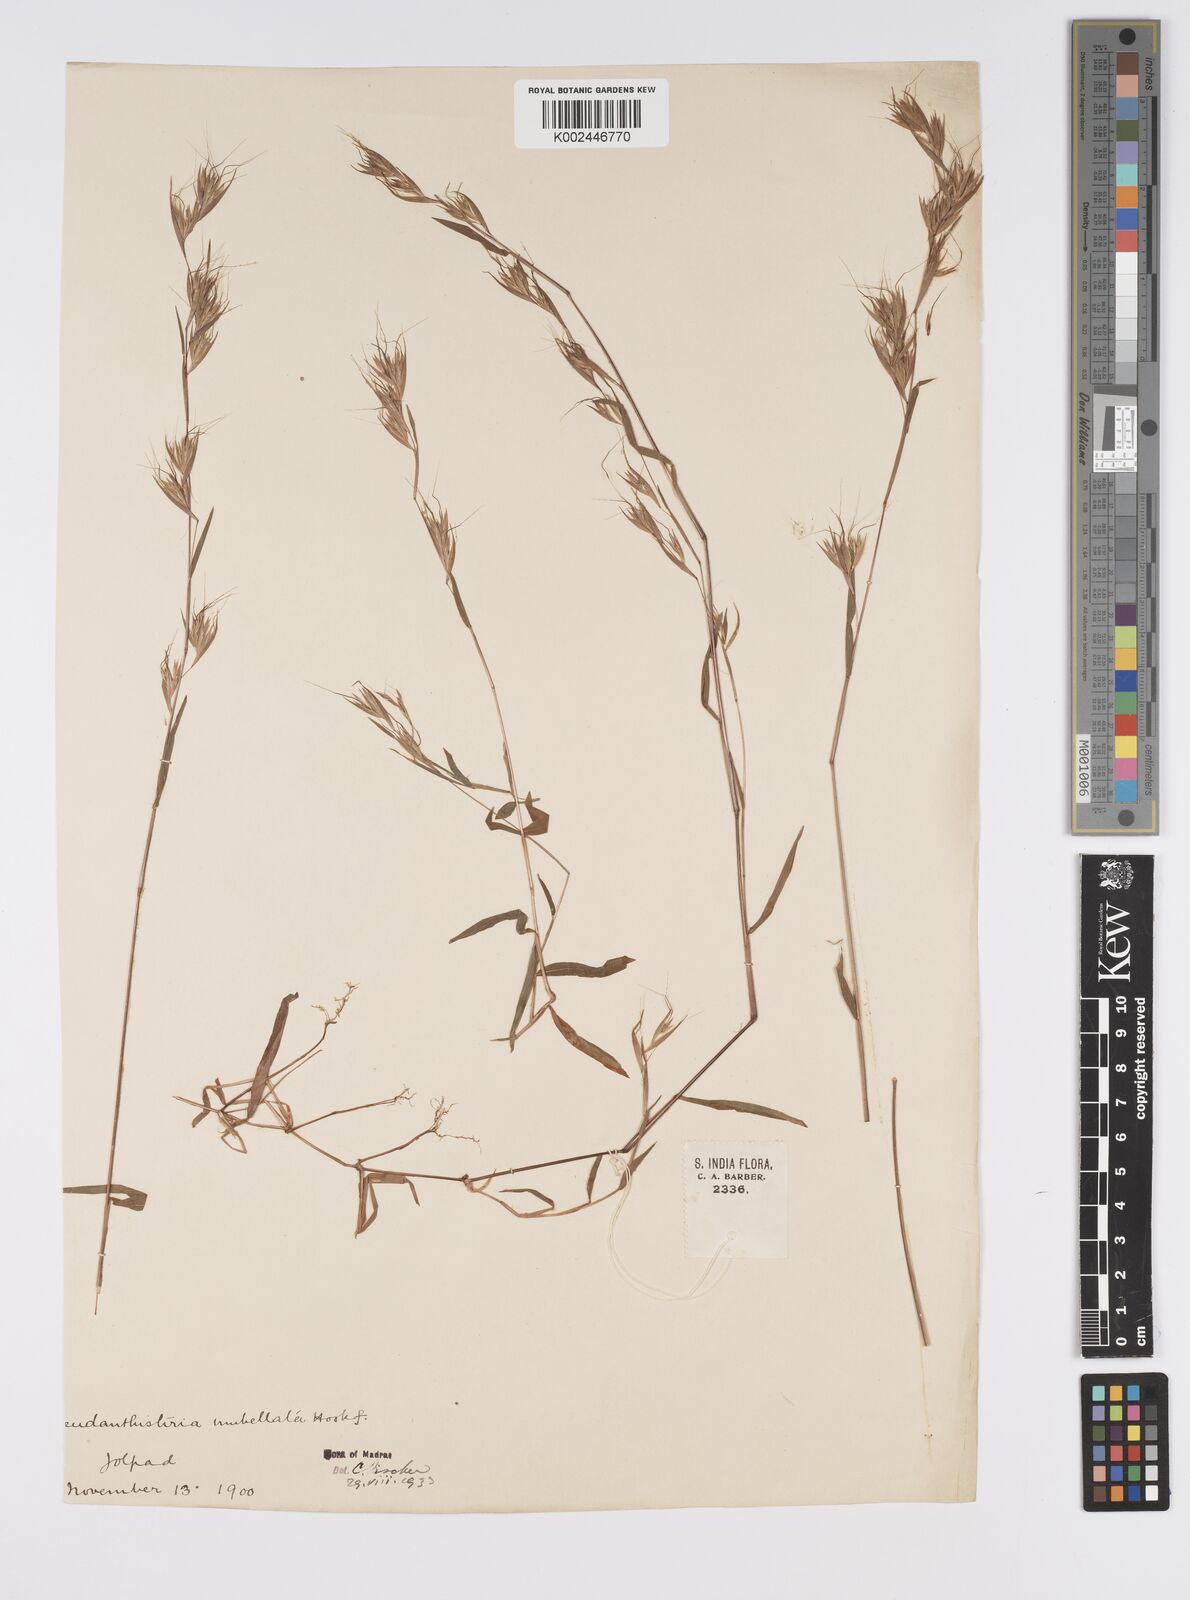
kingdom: Plantae
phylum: Tracheophyta
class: Liliopsida
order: Poales
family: Poaceae
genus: Pseudanthistiria
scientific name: Pseudanthistiria umbellata
